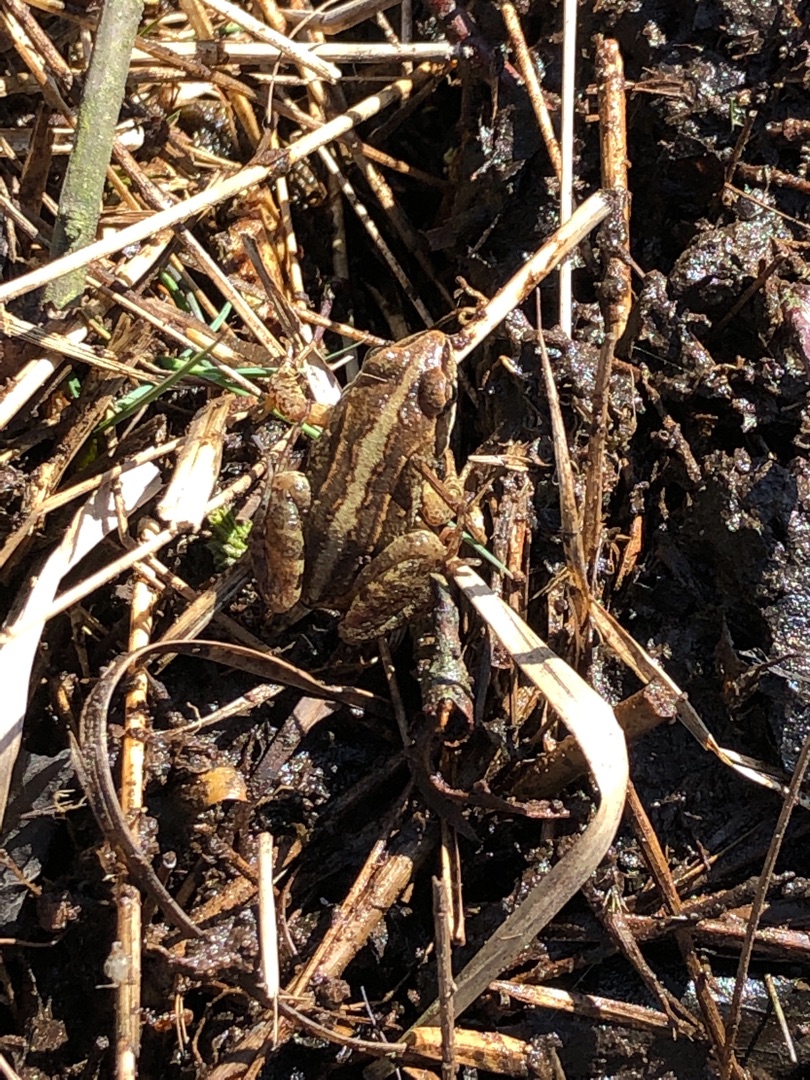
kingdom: Animalia
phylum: Chordata
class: Amphibia
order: Anura
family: Ranidae
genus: Rana
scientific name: Rana arvalis
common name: Spidssnudet frø
